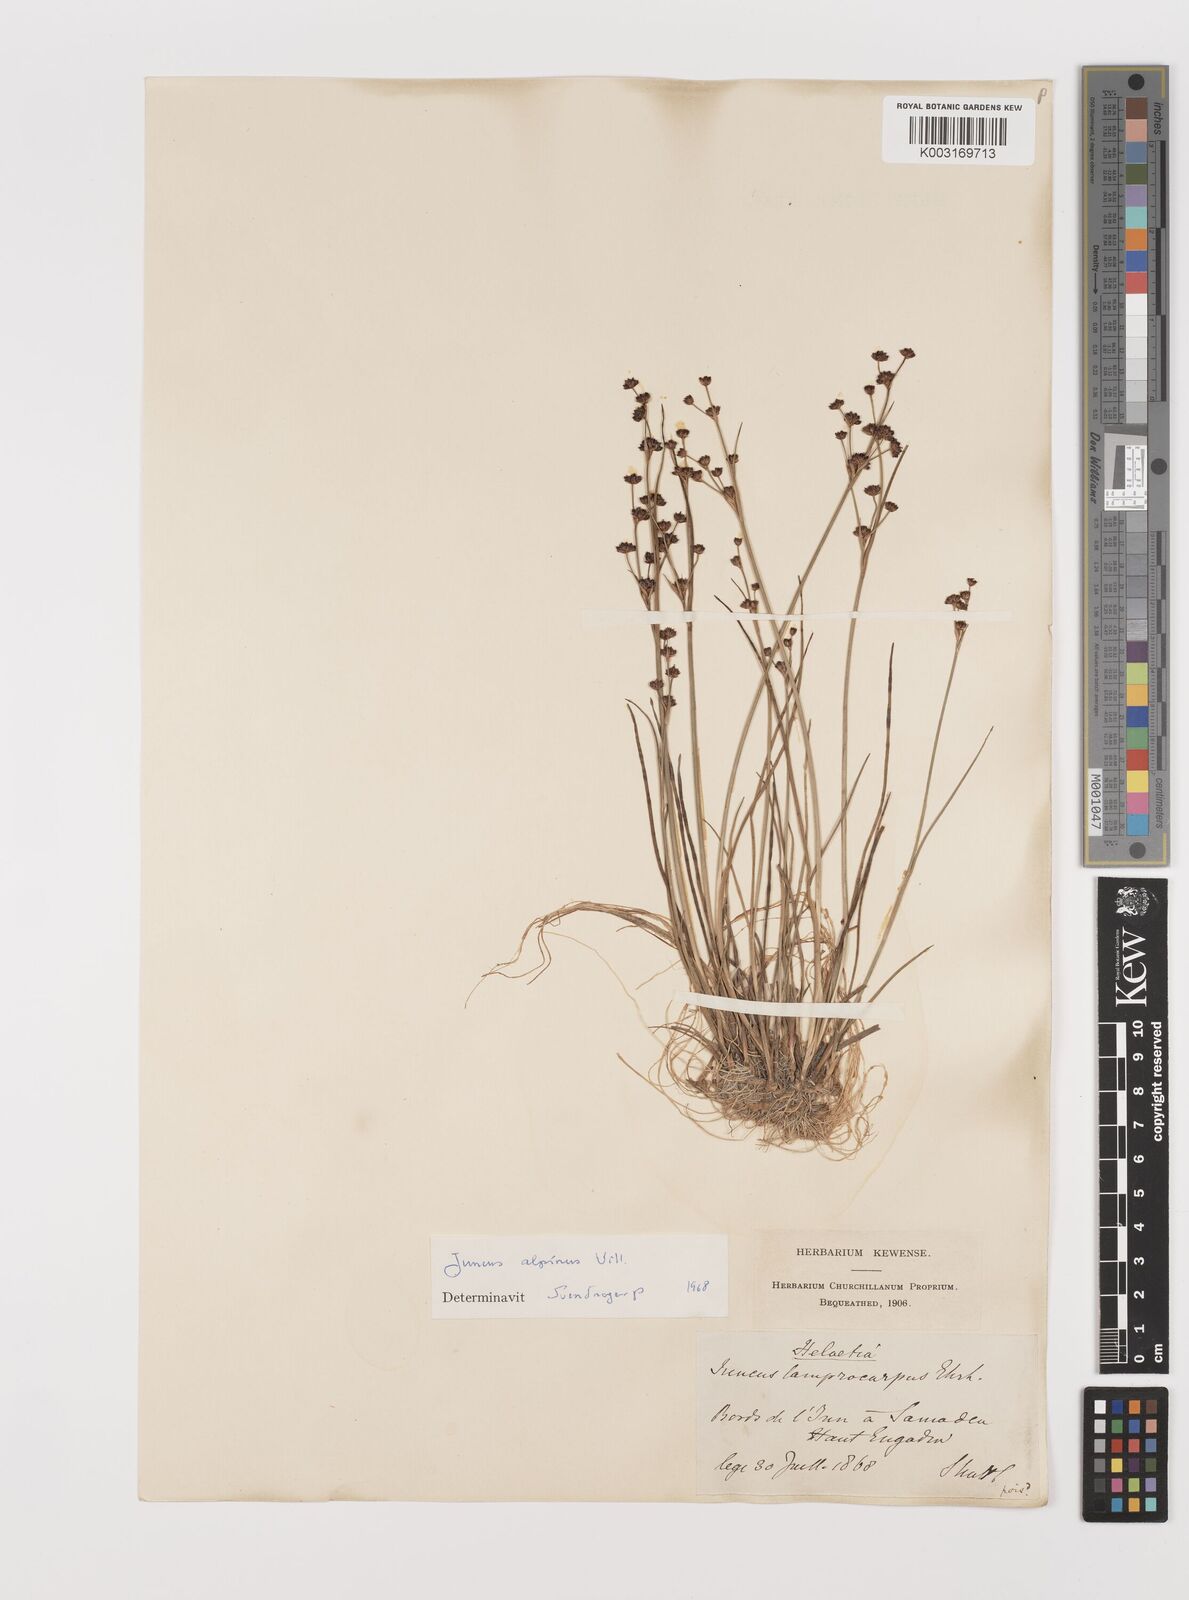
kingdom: Plantae
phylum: Tracheophyta
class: Liliopsida
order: Poales
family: Juncaceae
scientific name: Juncaceae
